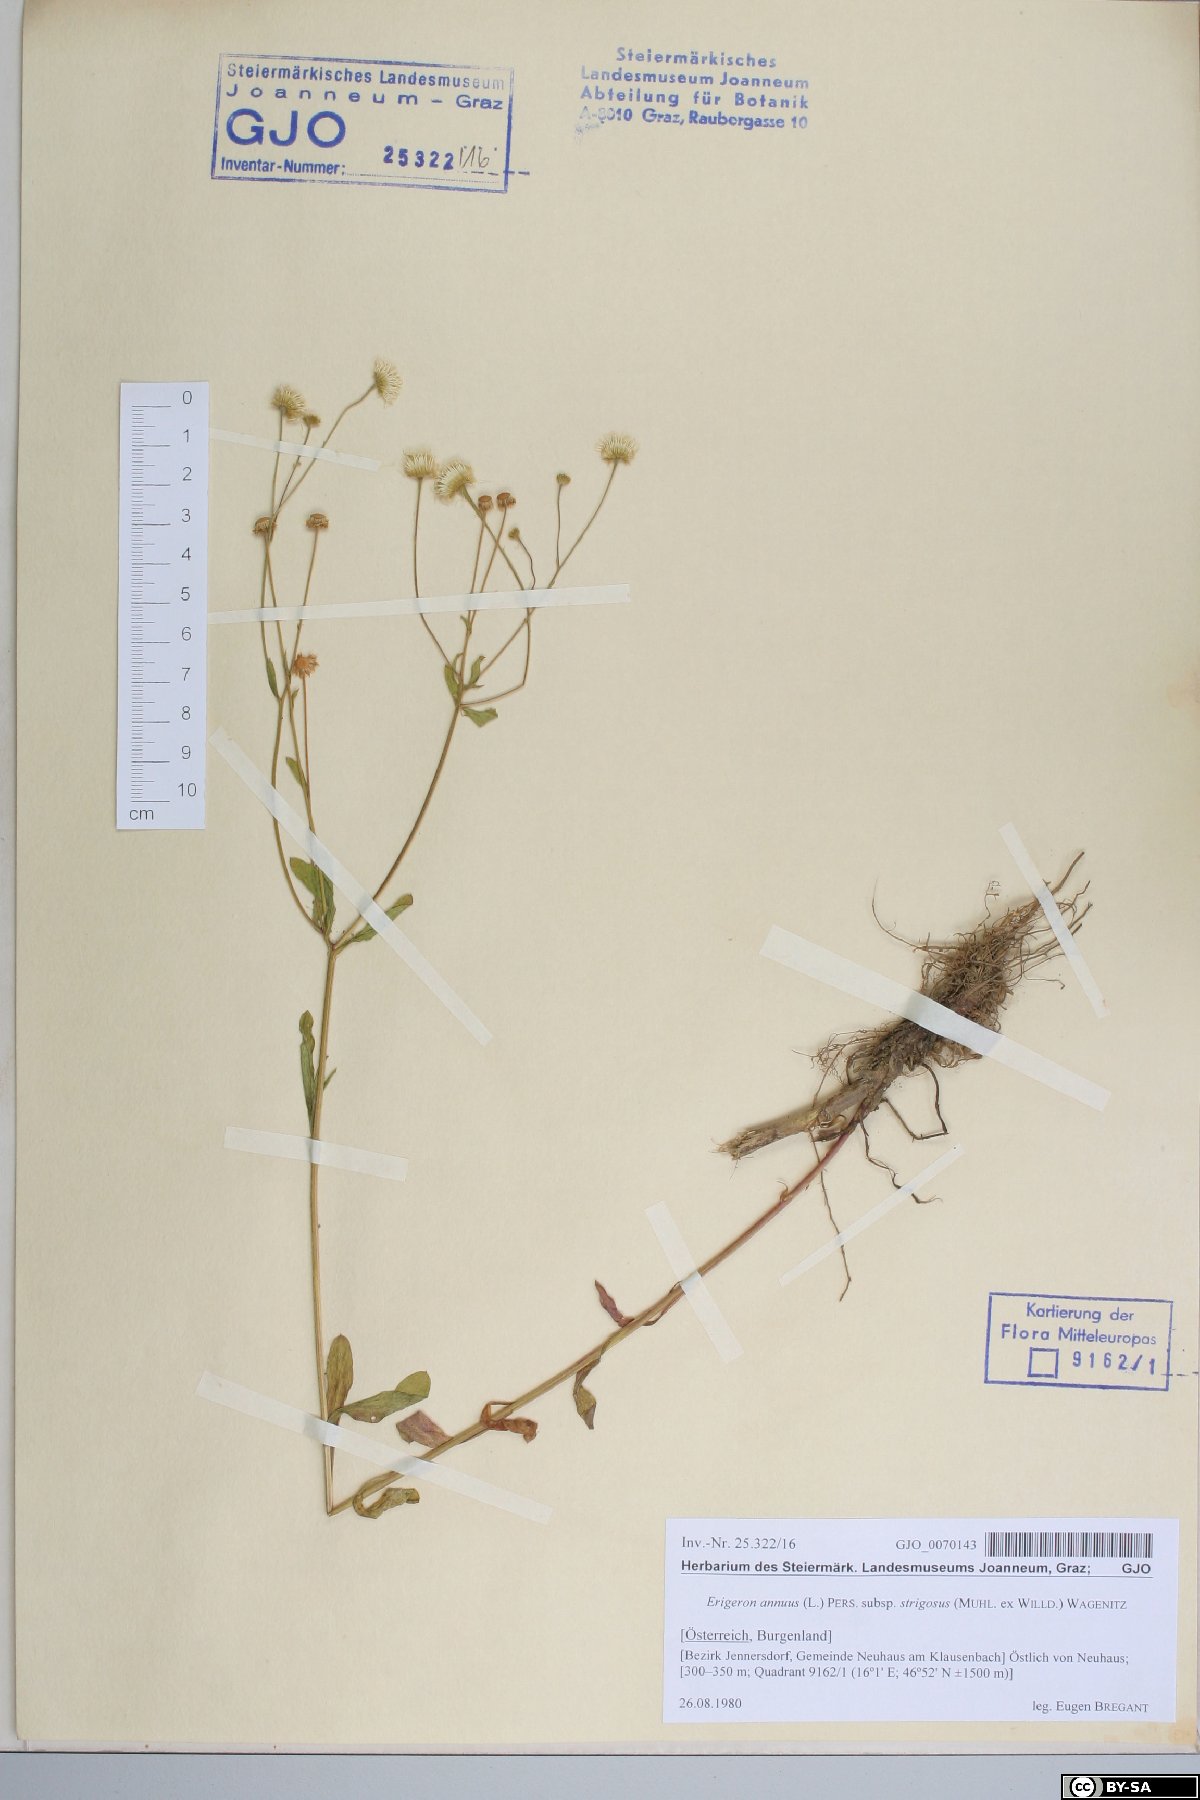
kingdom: Plantae
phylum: Tracheophyta
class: Magnoliopsida
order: Asterales
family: Asteraceae
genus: Erigeron
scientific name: Erigeron strigosus
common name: Common eastern fleabane
